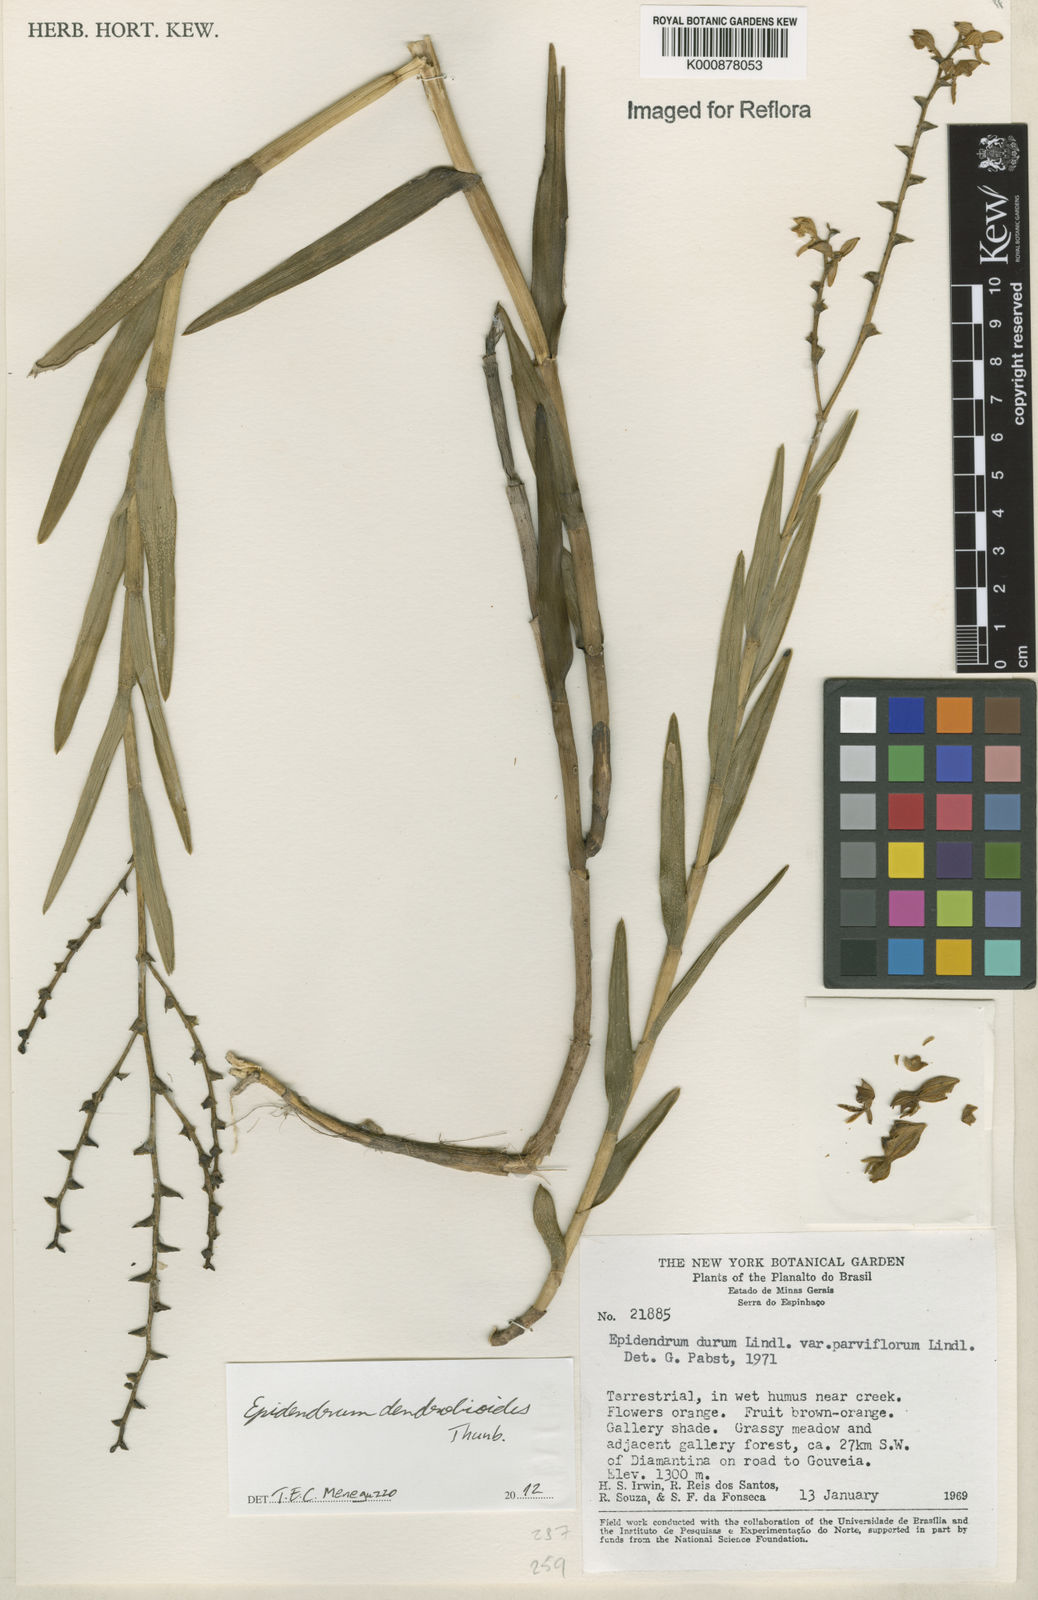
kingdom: Plantae
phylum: Tracheophyta
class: Liliopsida
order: Asparagales
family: Orchidaceae
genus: Epidendrum
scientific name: Epidendrum dendrobioides
